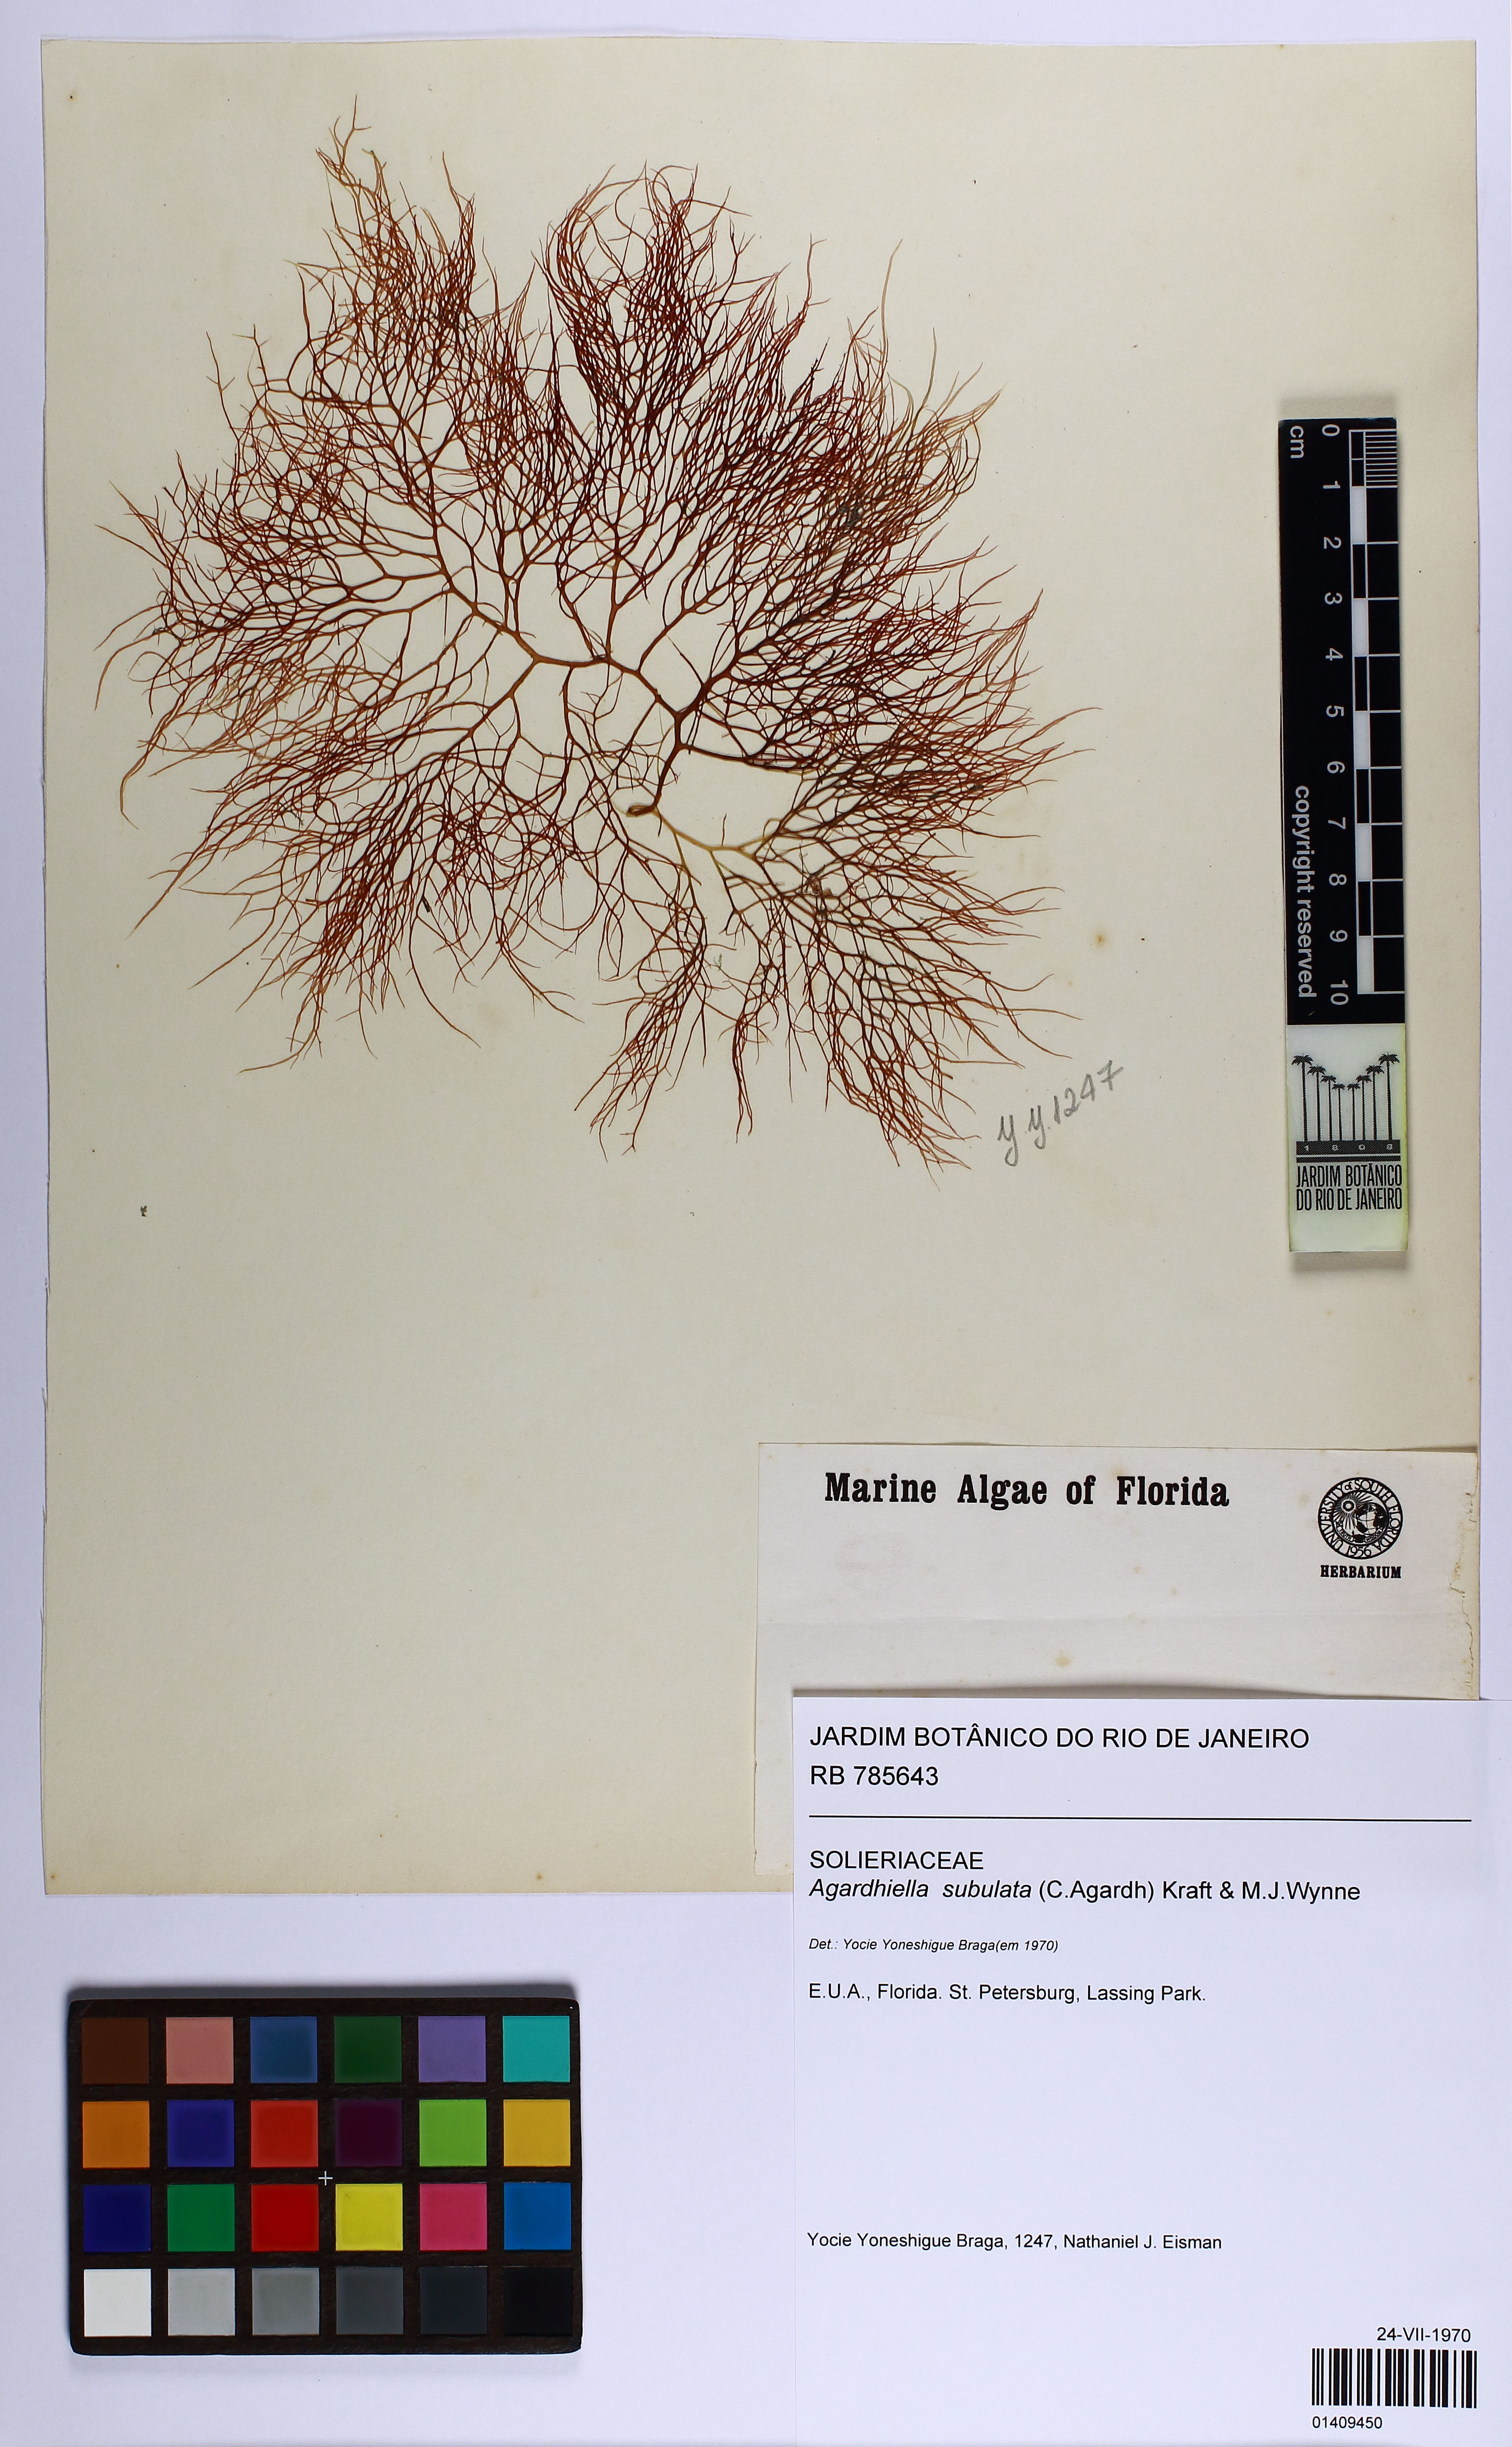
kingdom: Plantae
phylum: Rhodophyta
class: Florideophyceae
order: Gigartinales
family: Solieriaceae
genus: Agardhiella
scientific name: Agardhiella subulata
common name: Agardh's red weed
